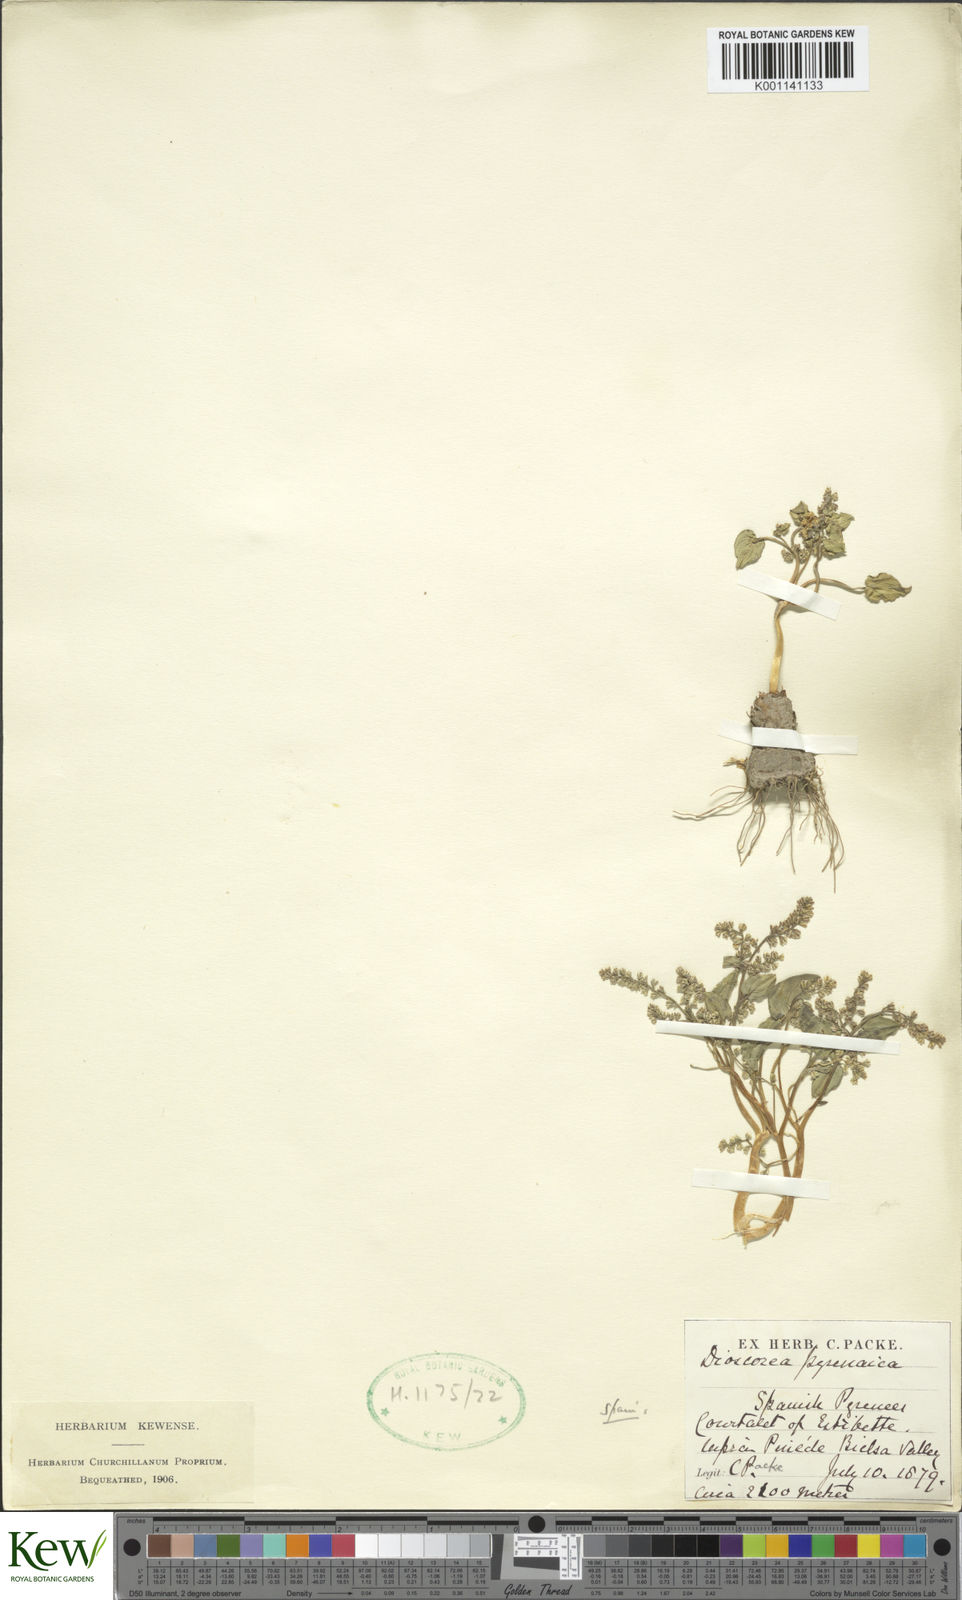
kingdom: Plantae
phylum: Tracheophyta
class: Liliopsida
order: Dioscoreales
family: Dioscoreaceae
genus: Dioscorea
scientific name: Dioscorea
